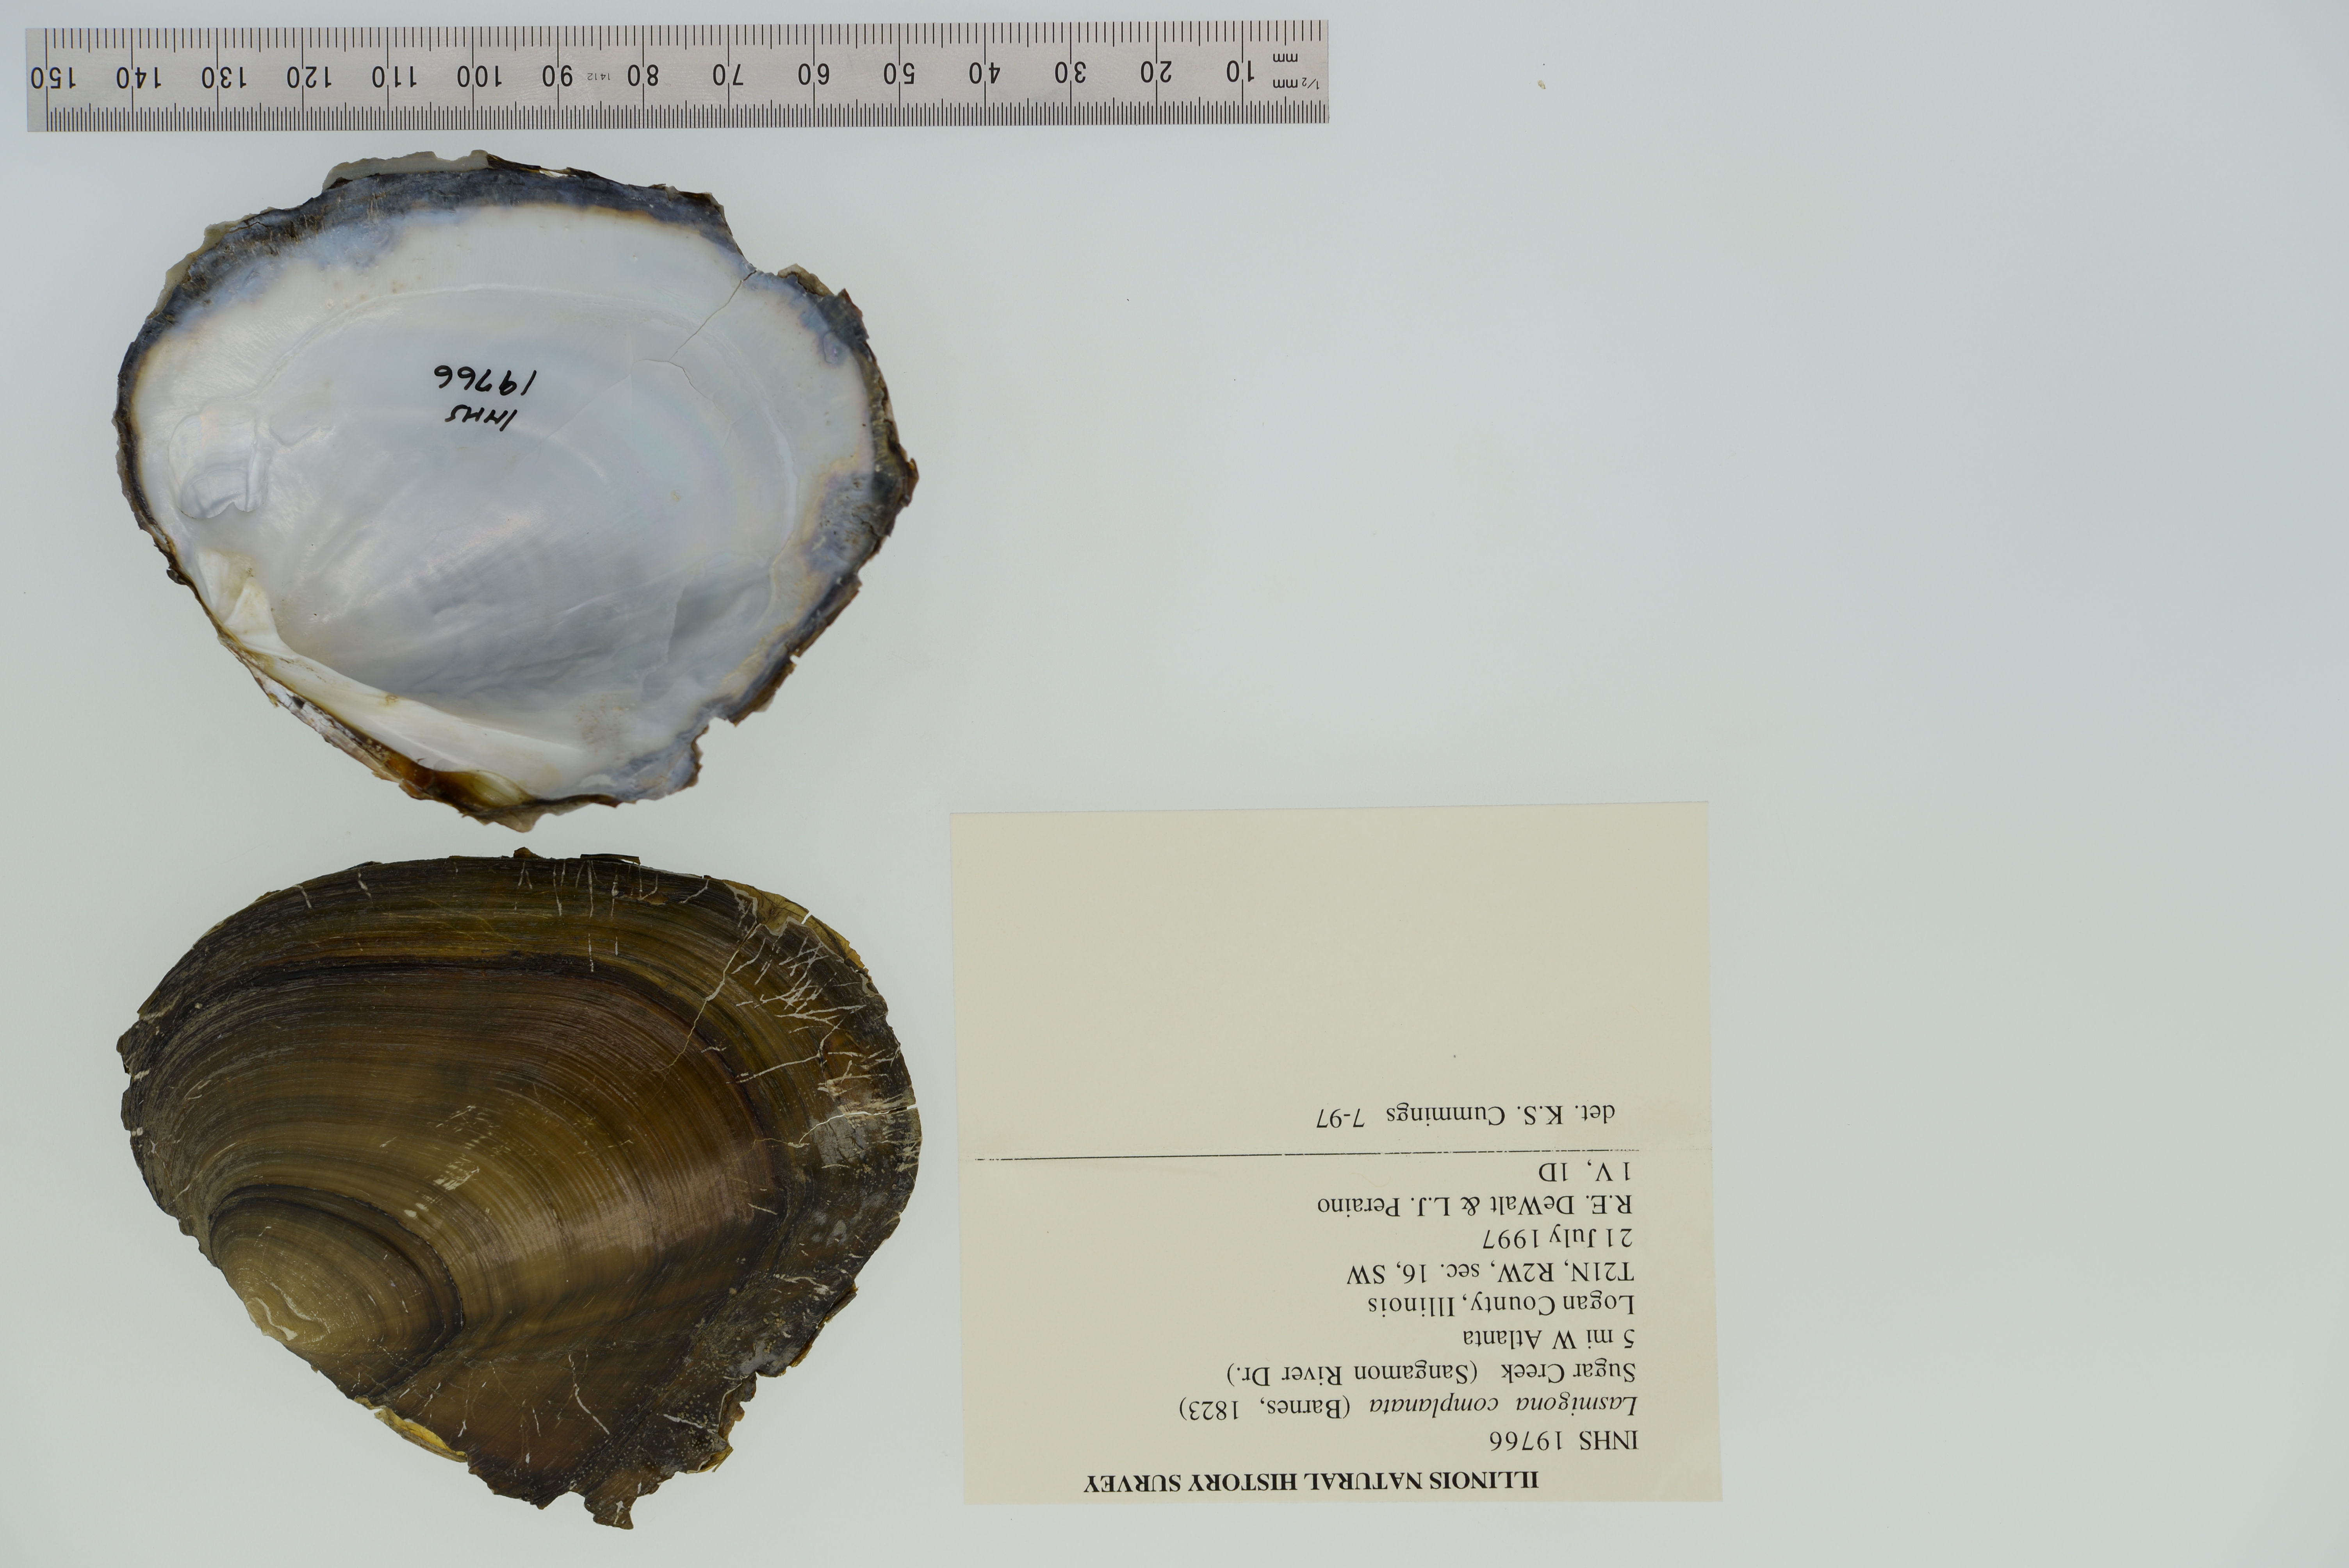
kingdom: Animalia
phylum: Mollusca
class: Bivalvia
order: Unionida
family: Unionidae
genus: Lasmigona
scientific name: Lasmigona complanata
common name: White heelsplitter
